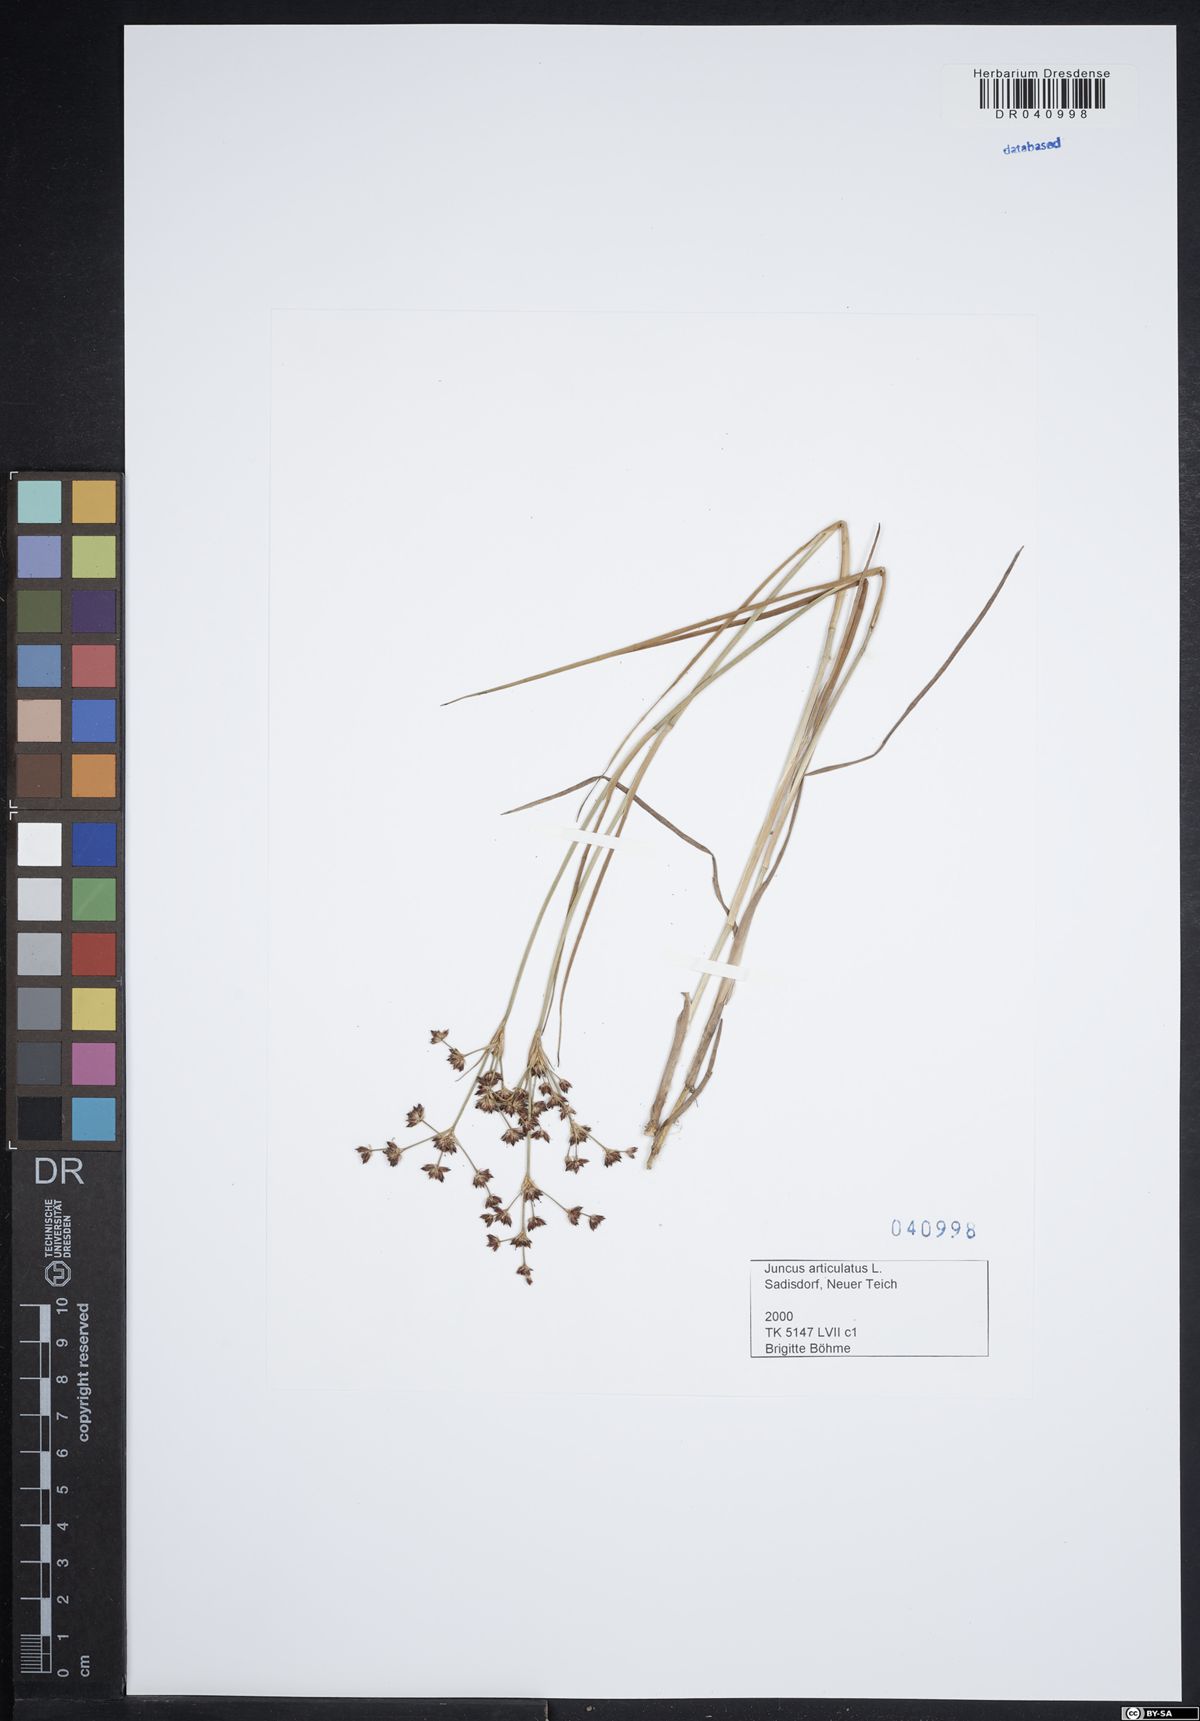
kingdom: Plantae
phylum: Tracheophyta
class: Liliopsida
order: Poales
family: Juncaceae
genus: Juncus
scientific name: Juncus articulatus
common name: Jointed rush
